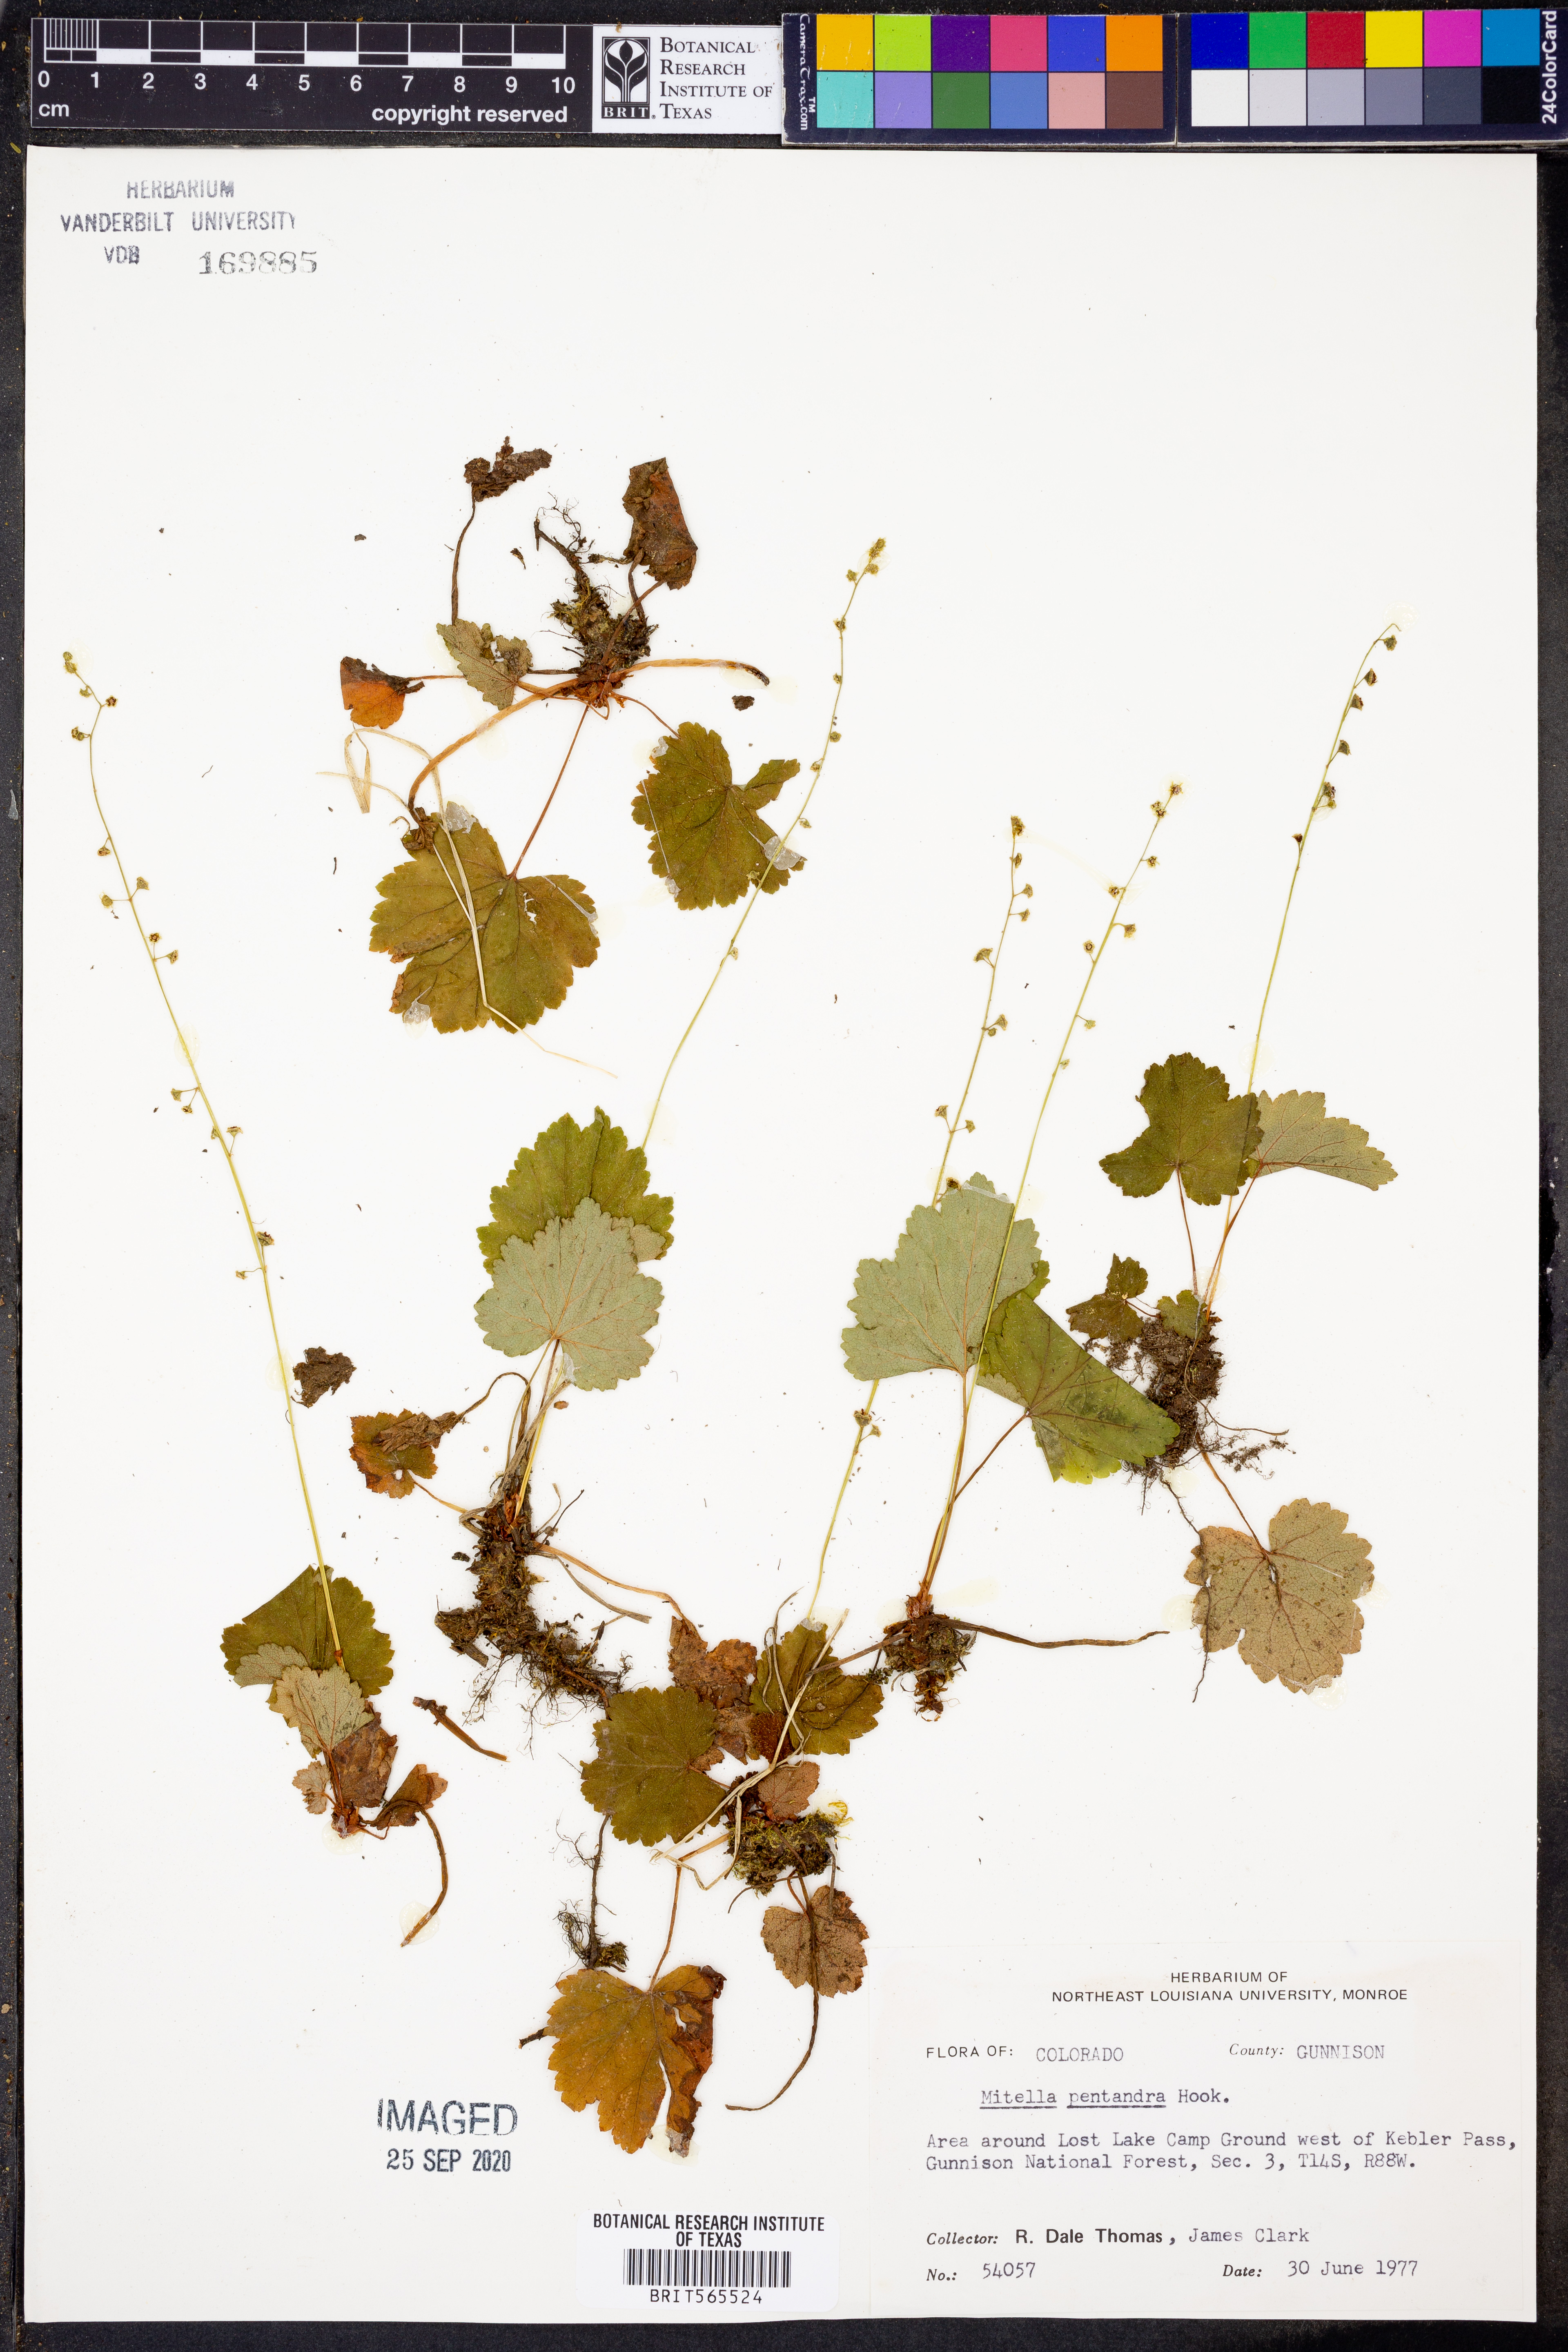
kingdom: Plantae
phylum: Tracheophyta
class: Magnoliopsida
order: Saxifragales
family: Saxifragaceae
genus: Pectiantia
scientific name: Pectiantia pentandra
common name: Alpine bishop's-cap
